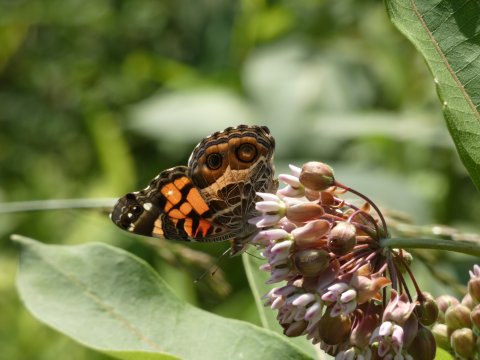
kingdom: Animalia
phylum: Arthropoda
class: Insecta
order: Lepidoptera
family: Nymphalidae
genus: Vanessa
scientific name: Vanessa virginiensis
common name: American Lady
